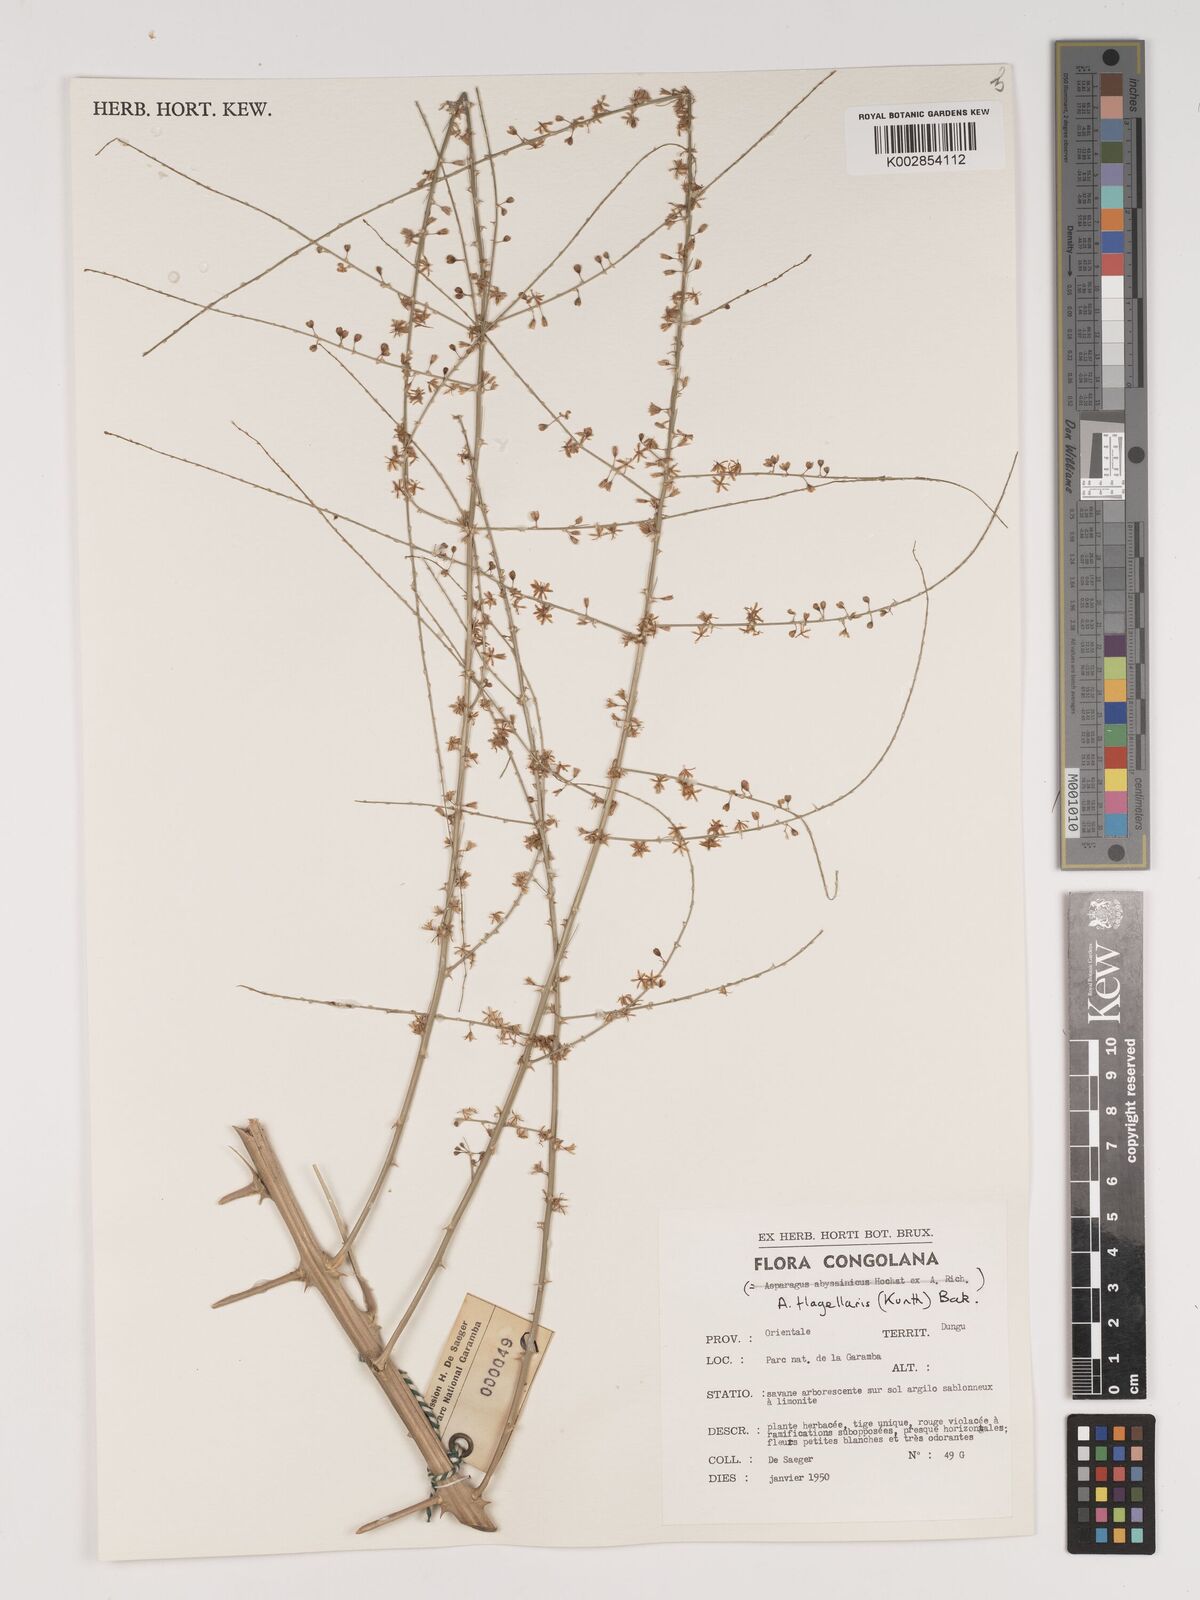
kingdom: Plantae
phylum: Tracheophyta
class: Liliopsida
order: Asparagales
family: Asparagaceae
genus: Asparagus
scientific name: Asparagus flagellaris
